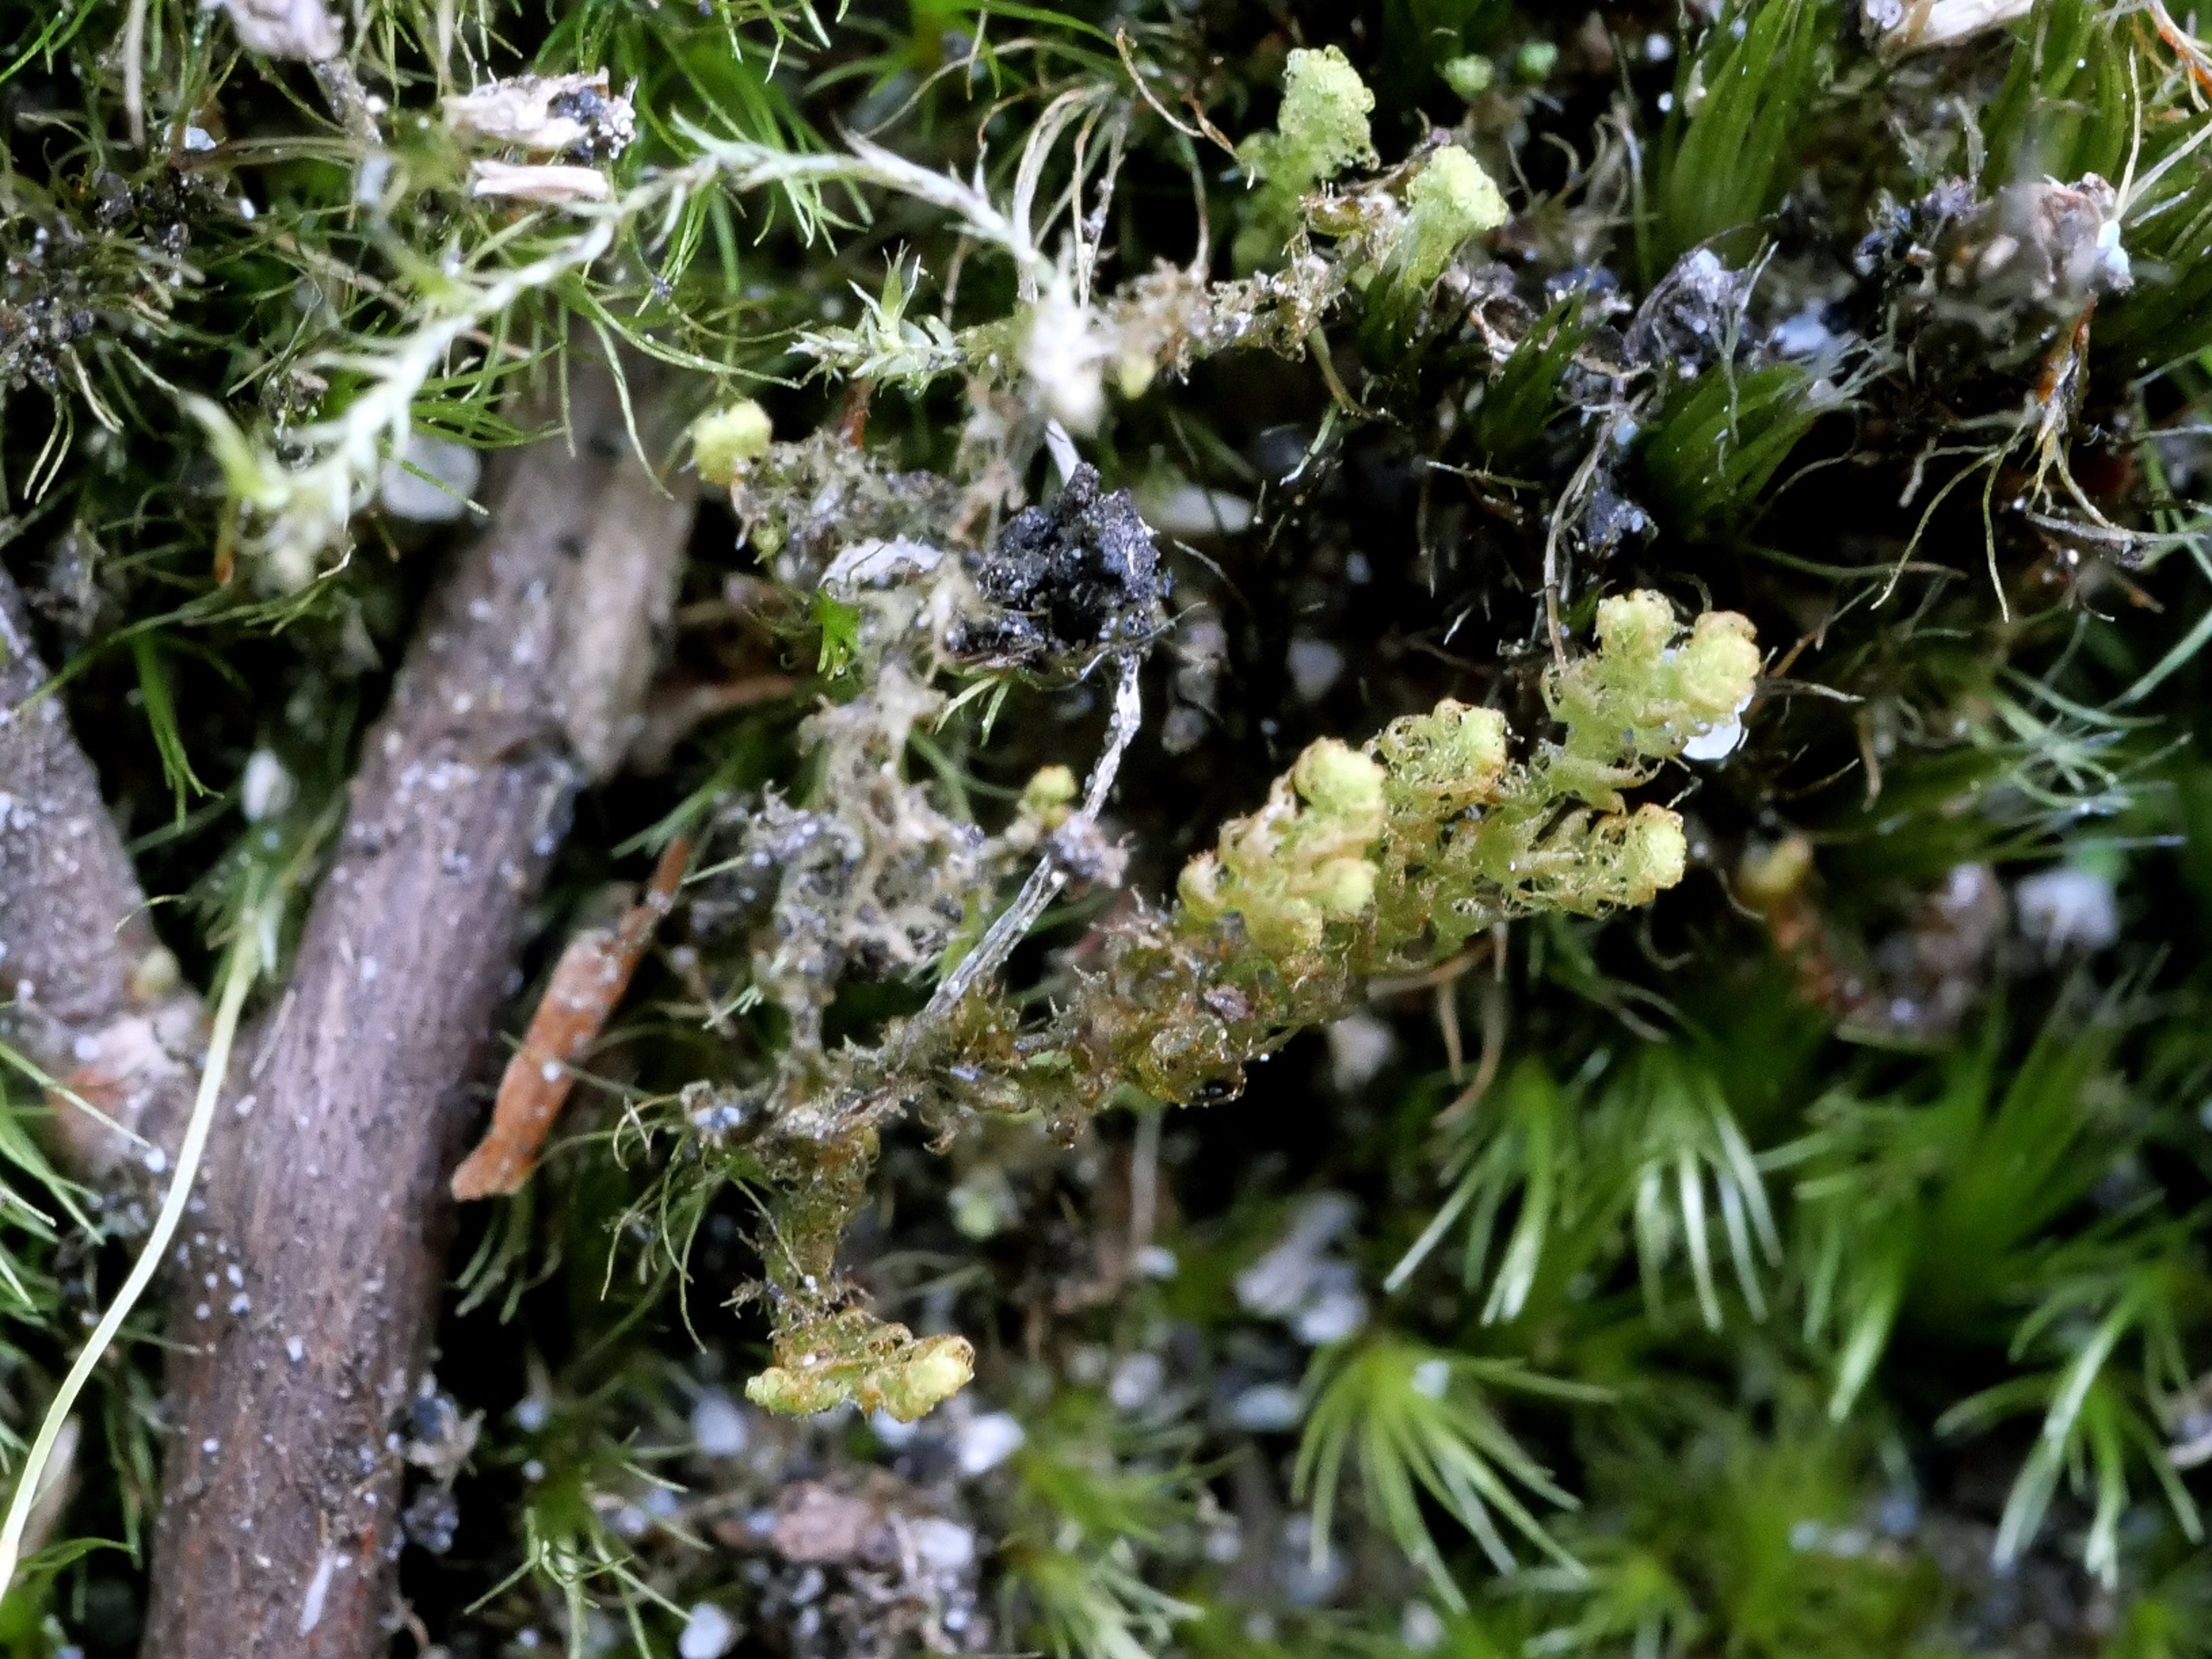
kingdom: Plantae
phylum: Marchantiophyta
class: Jungermanniopsida
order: Ptilidiales
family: Ptilidiaceae
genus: Ptilidium
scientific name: Ptilidium ciliare
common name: Almindelig frynsemos
